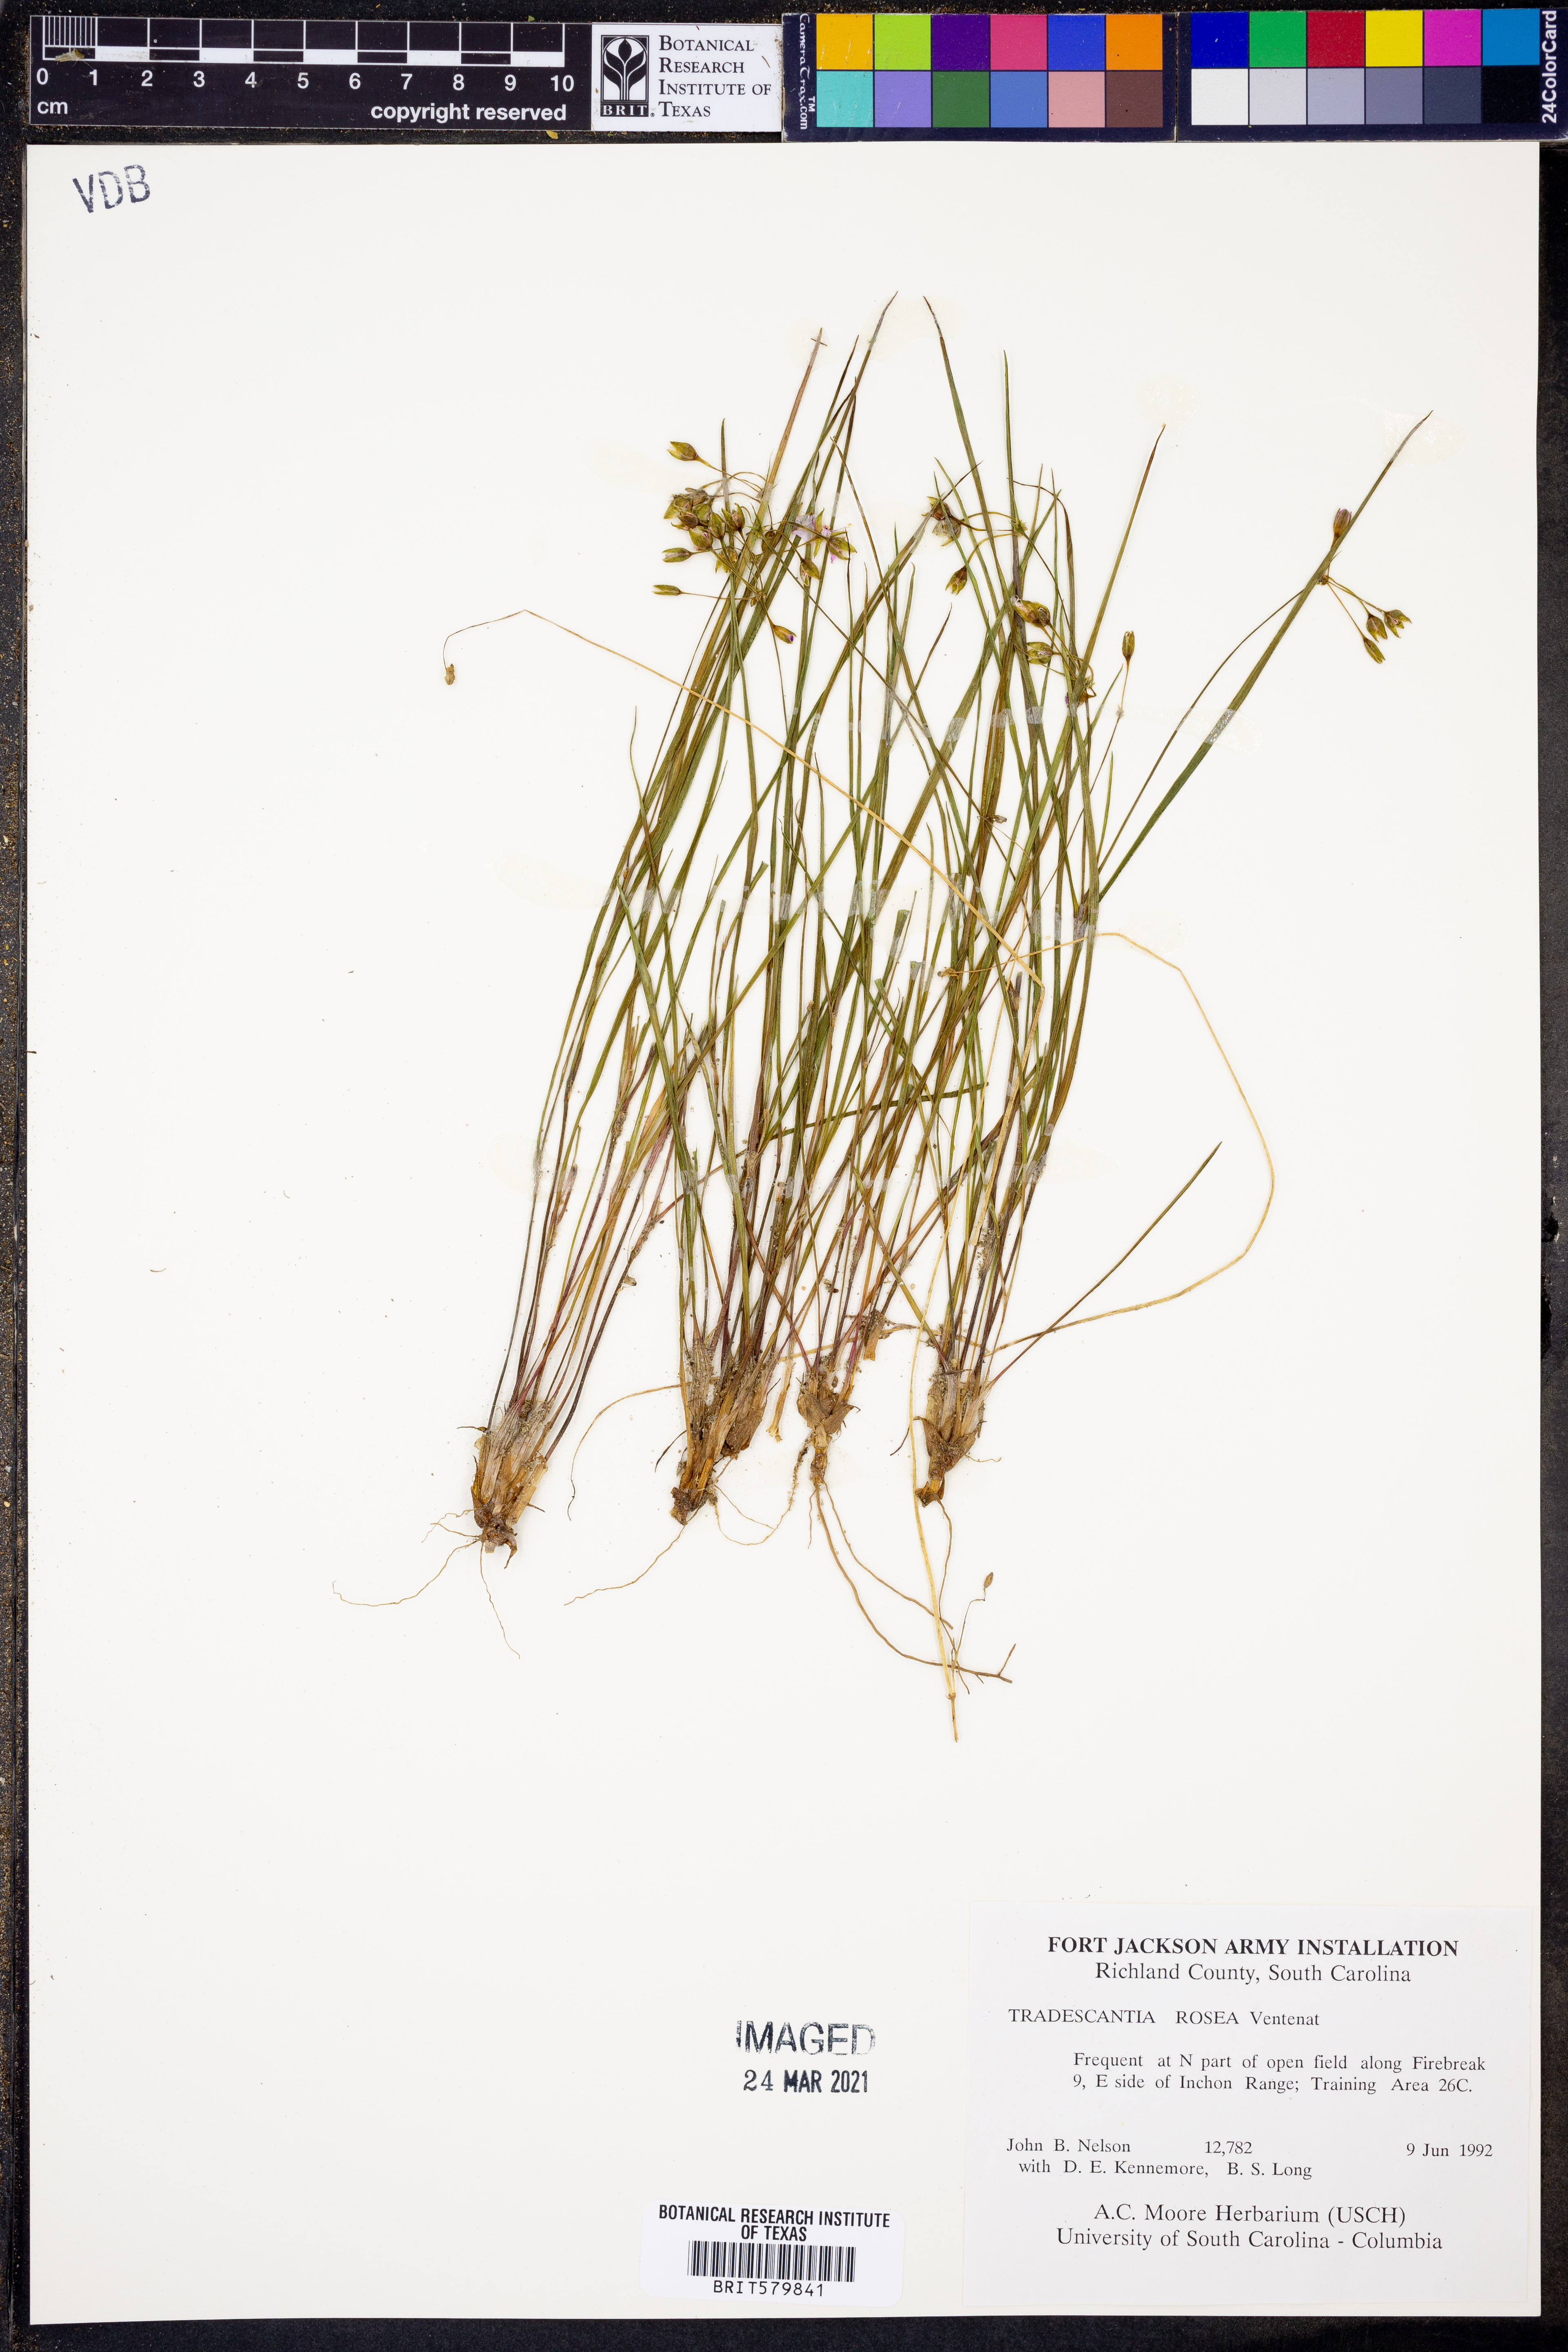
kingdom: Plantae
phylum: Tracheophyta
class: Liliopsida
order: Commelinales
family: Commelinaceae
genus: Callisia
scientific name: Callisia rosea
